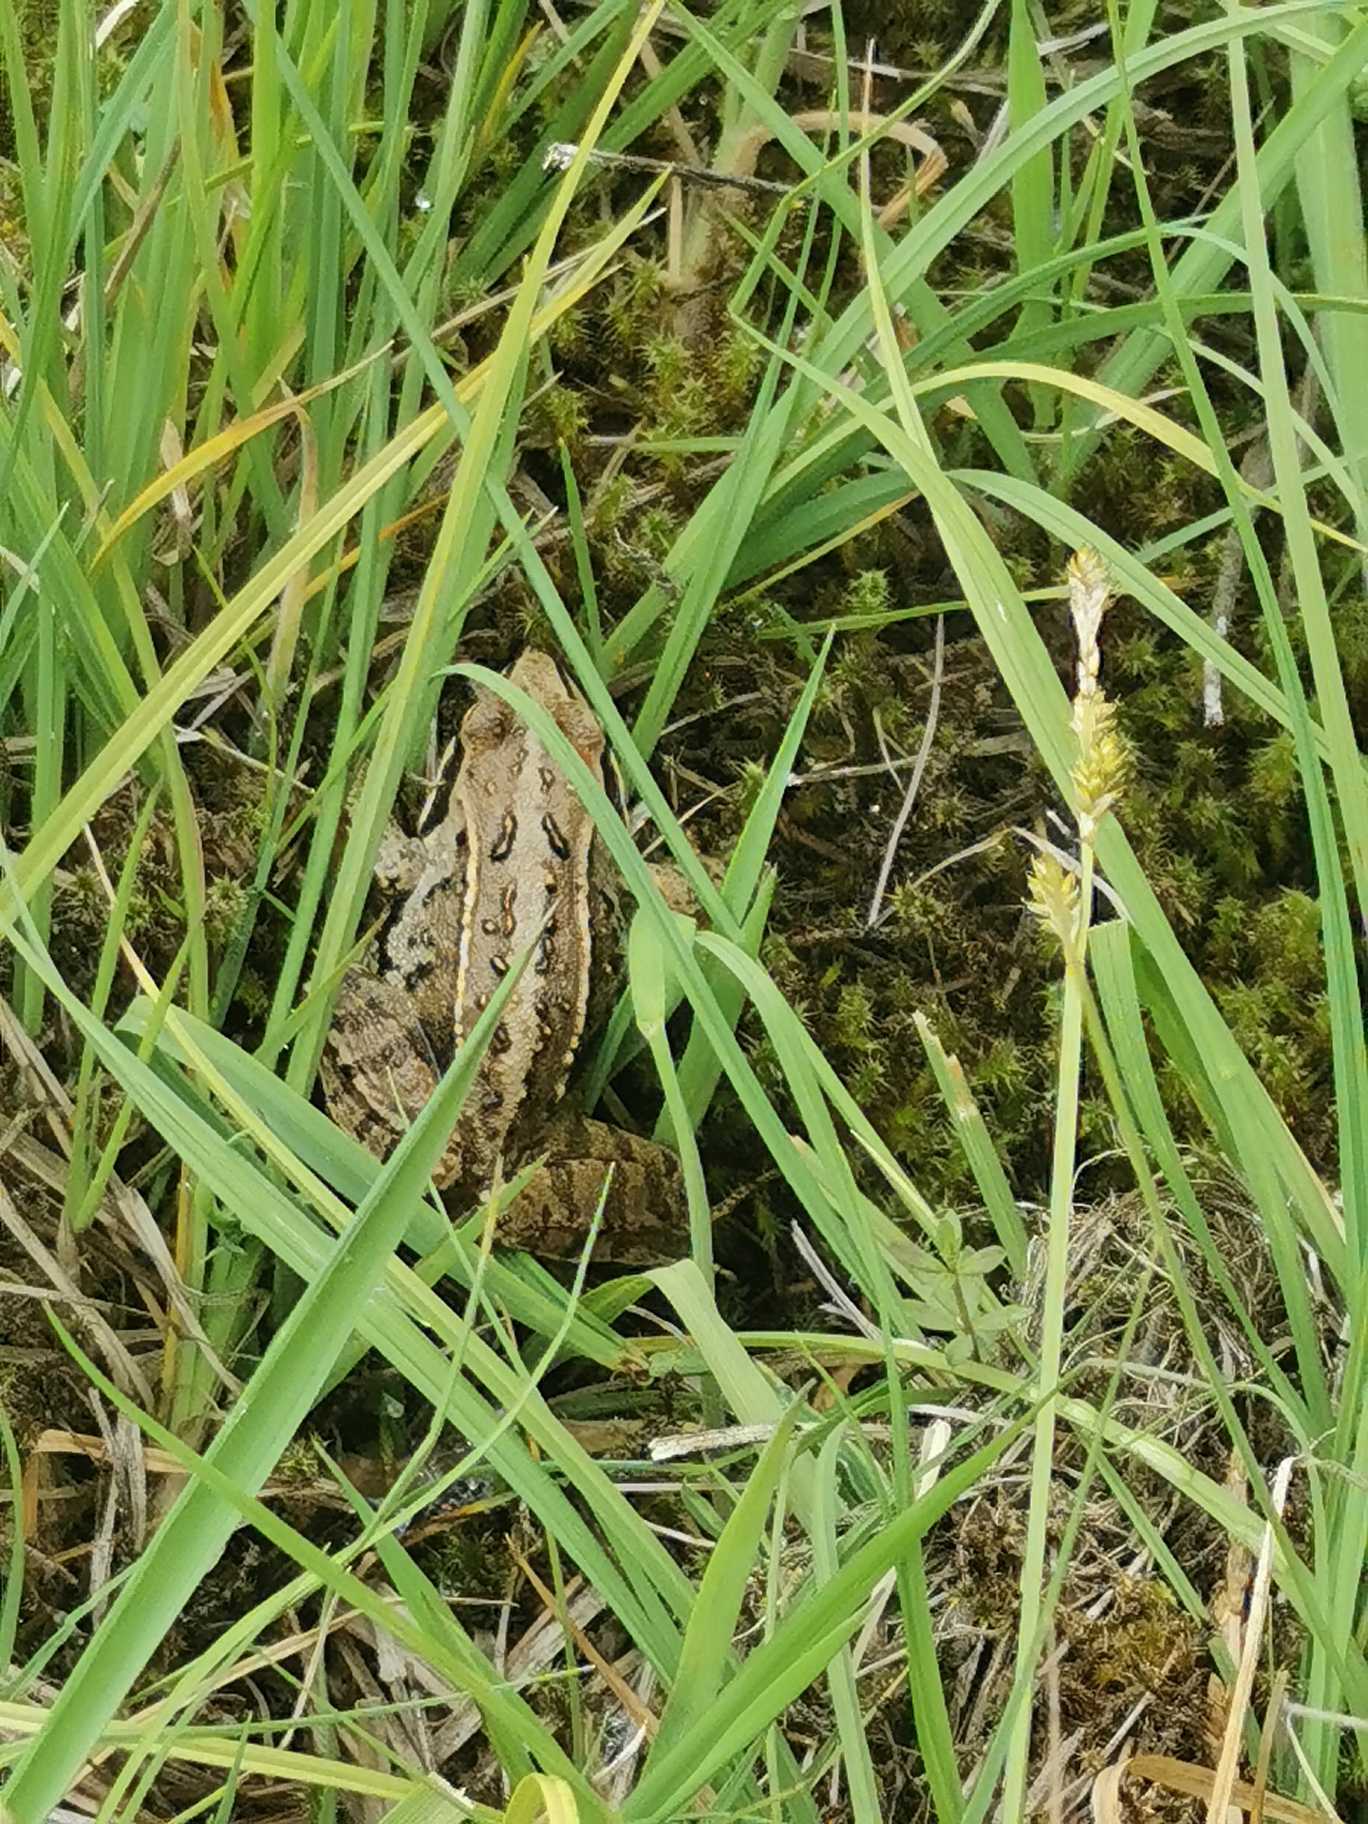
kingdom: Animalia
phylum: Chordata
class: Amphibia
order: Anura
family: Ranidae
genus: Rana
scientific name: Rana arvalis
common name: Spidssnudet frø
